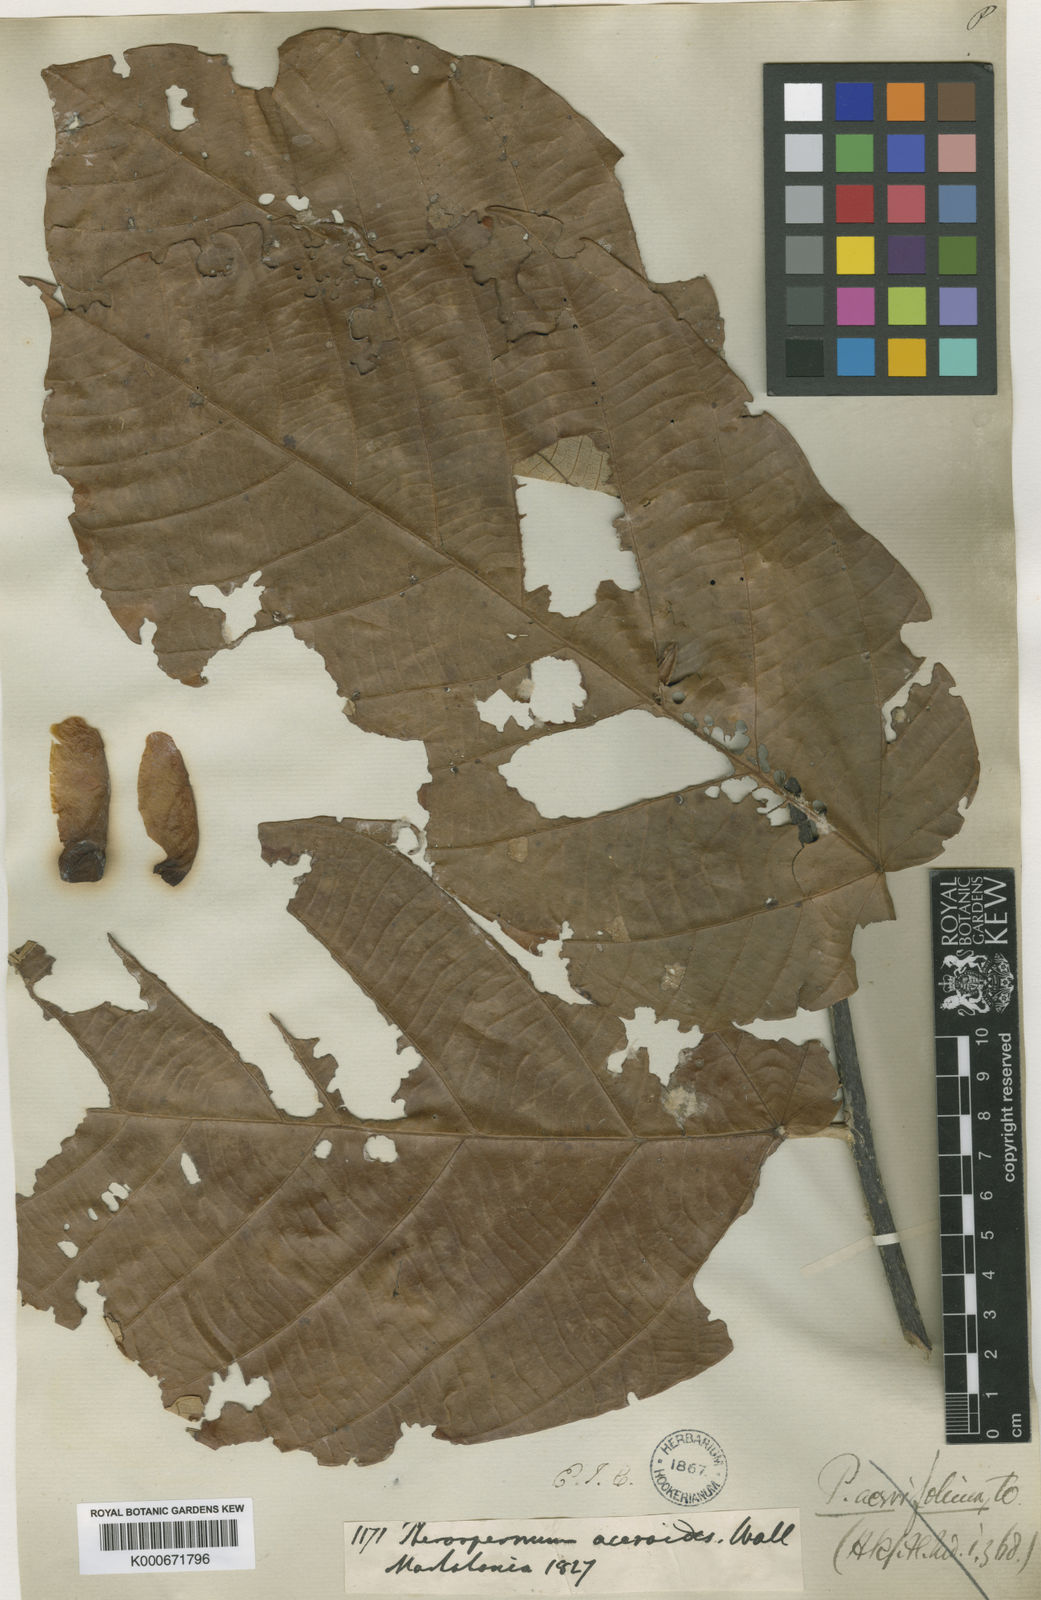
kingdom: Plantae
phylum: Tracheophyta
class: Magnoliopsida
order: Malvales
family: Malvaceae
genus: Pterospermum
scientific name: Pterospermum
